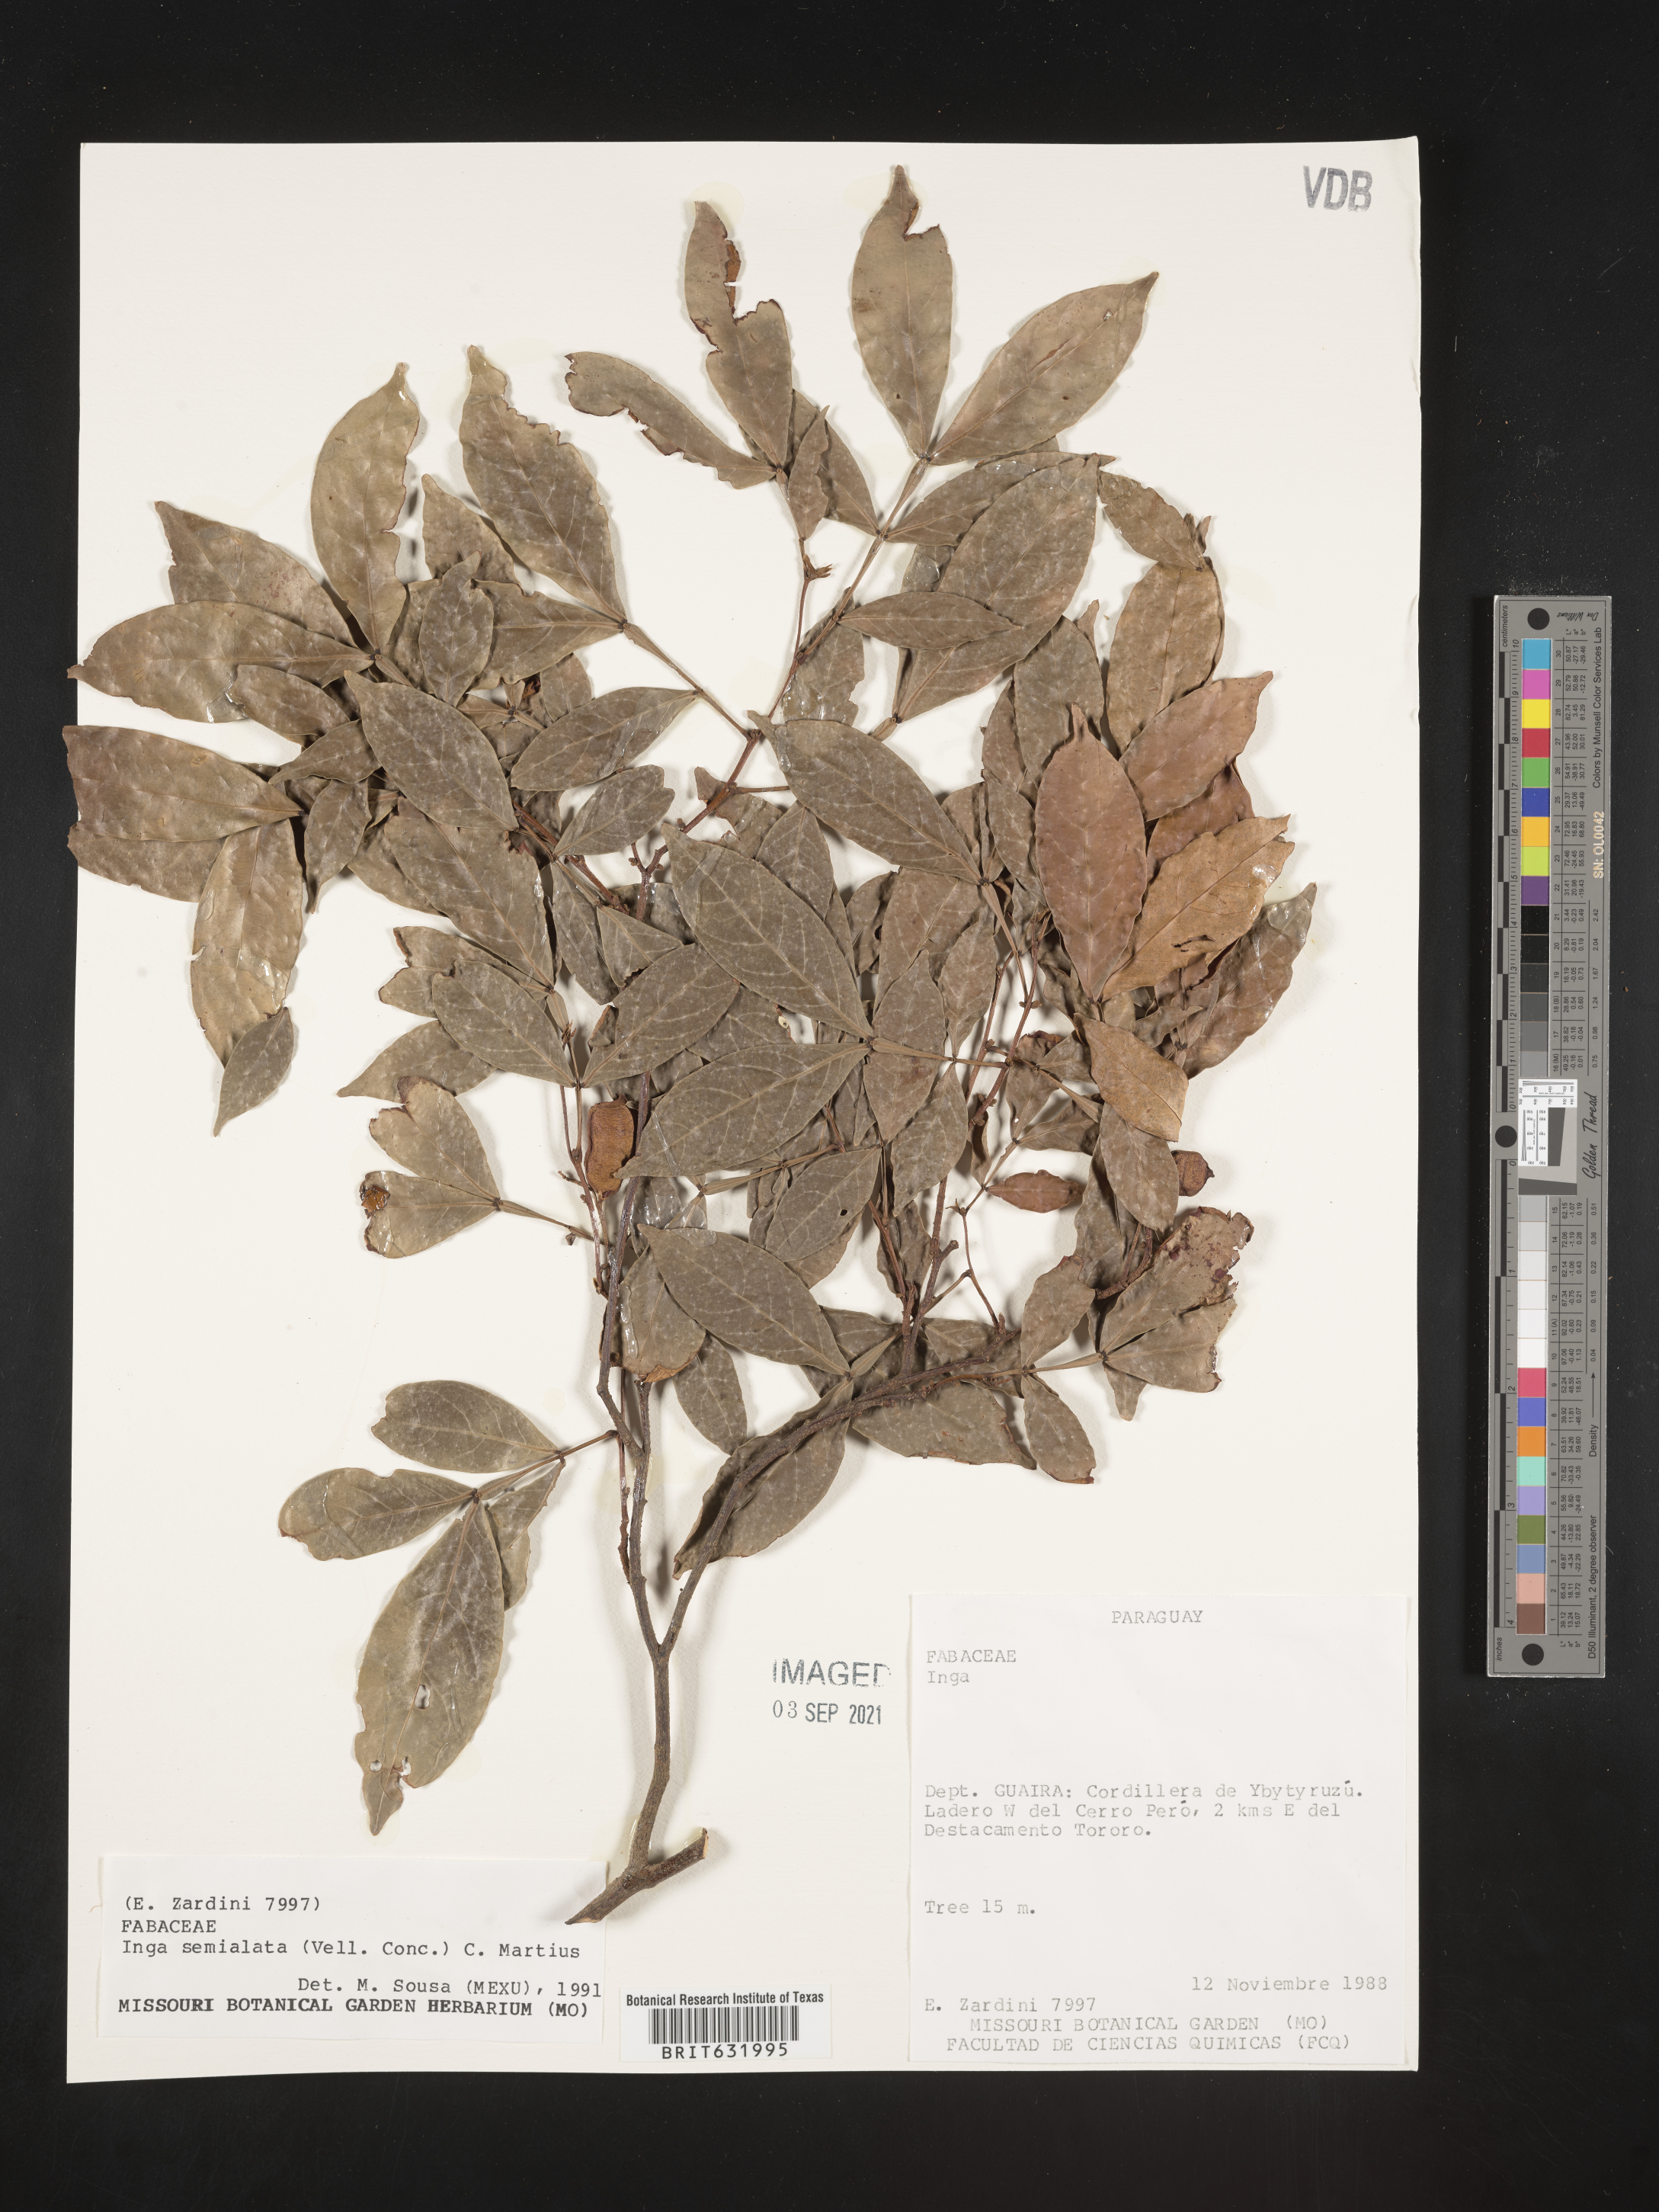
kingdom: Plantae
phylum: Tracheophyta
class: Magnoliopsida
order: Fabales
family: Fabaceae
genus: Inga
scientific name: Inga
